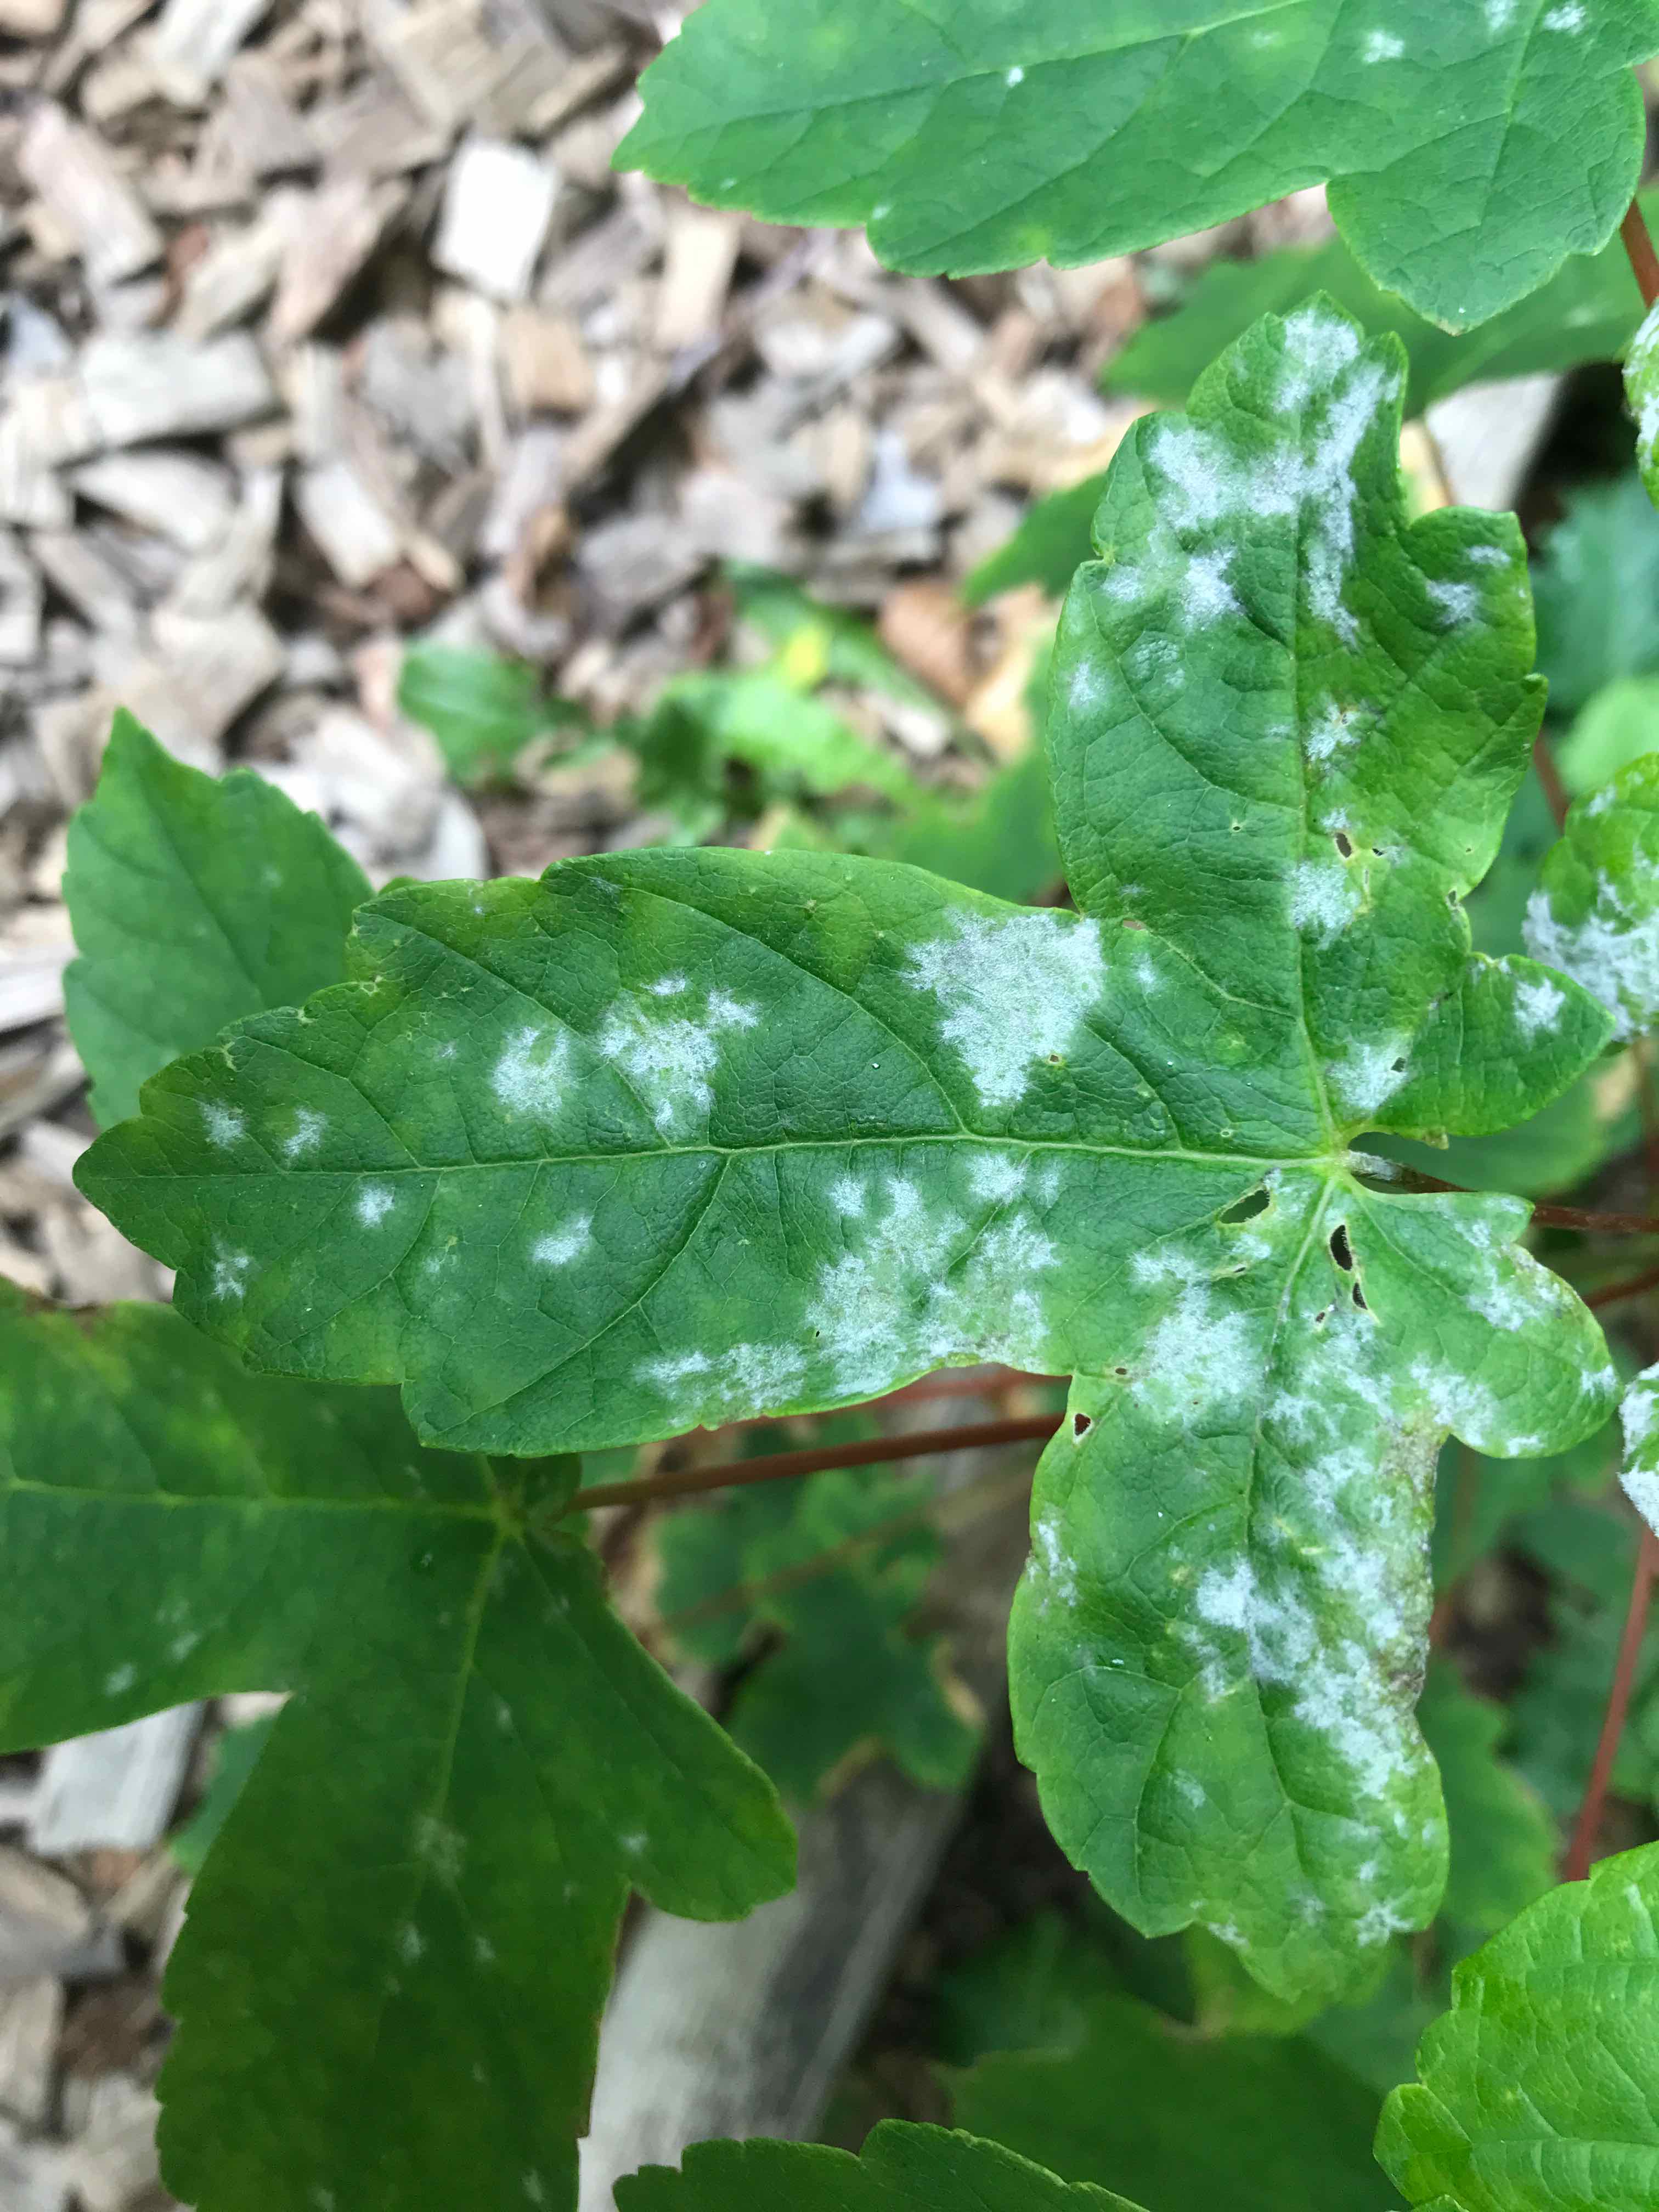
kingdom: Fungi
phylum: Ascomycota
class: Leotiomycetes
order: Helotiales
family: Erysiphaceae
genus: Sawadaea
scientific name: Sawadaea bicornis
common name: Maple mildew
